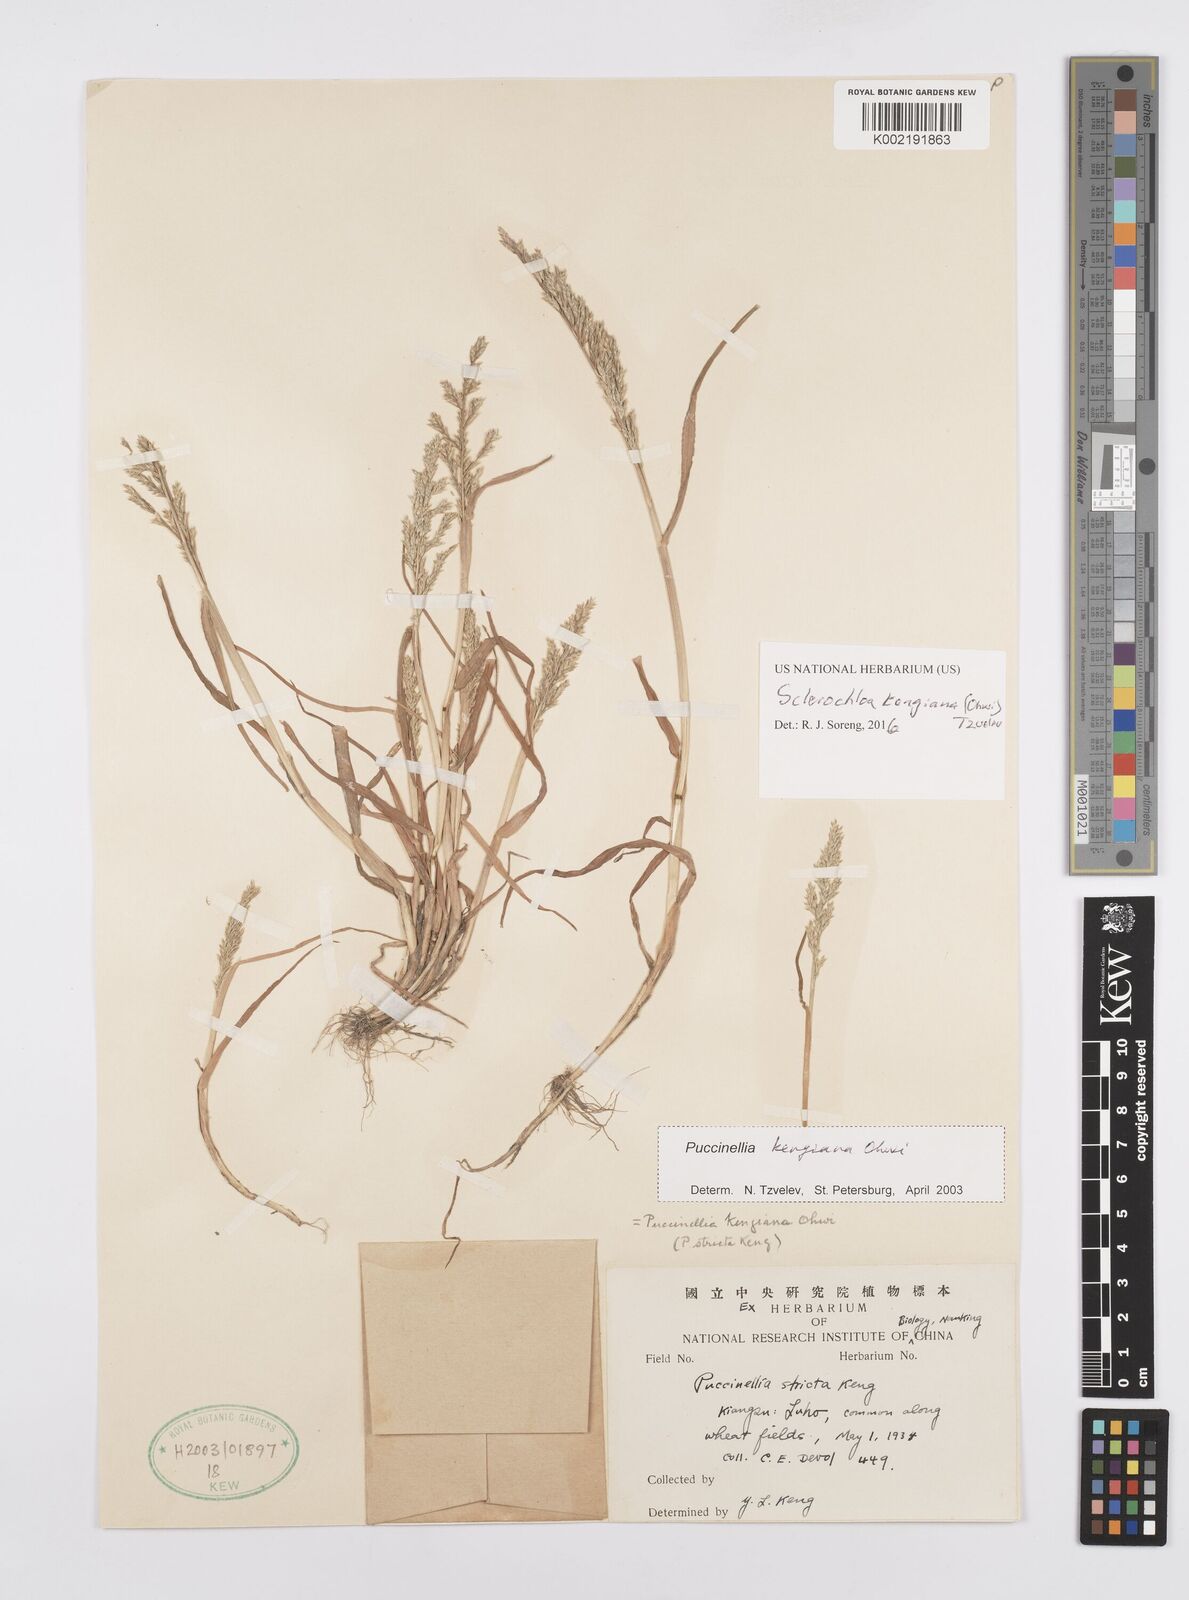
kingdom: Plantae
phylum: Tracheophyta
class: Liliopsida
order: Poales
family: Poaceae
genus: Sclerochloa
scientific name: Sclerochloa kengiana
